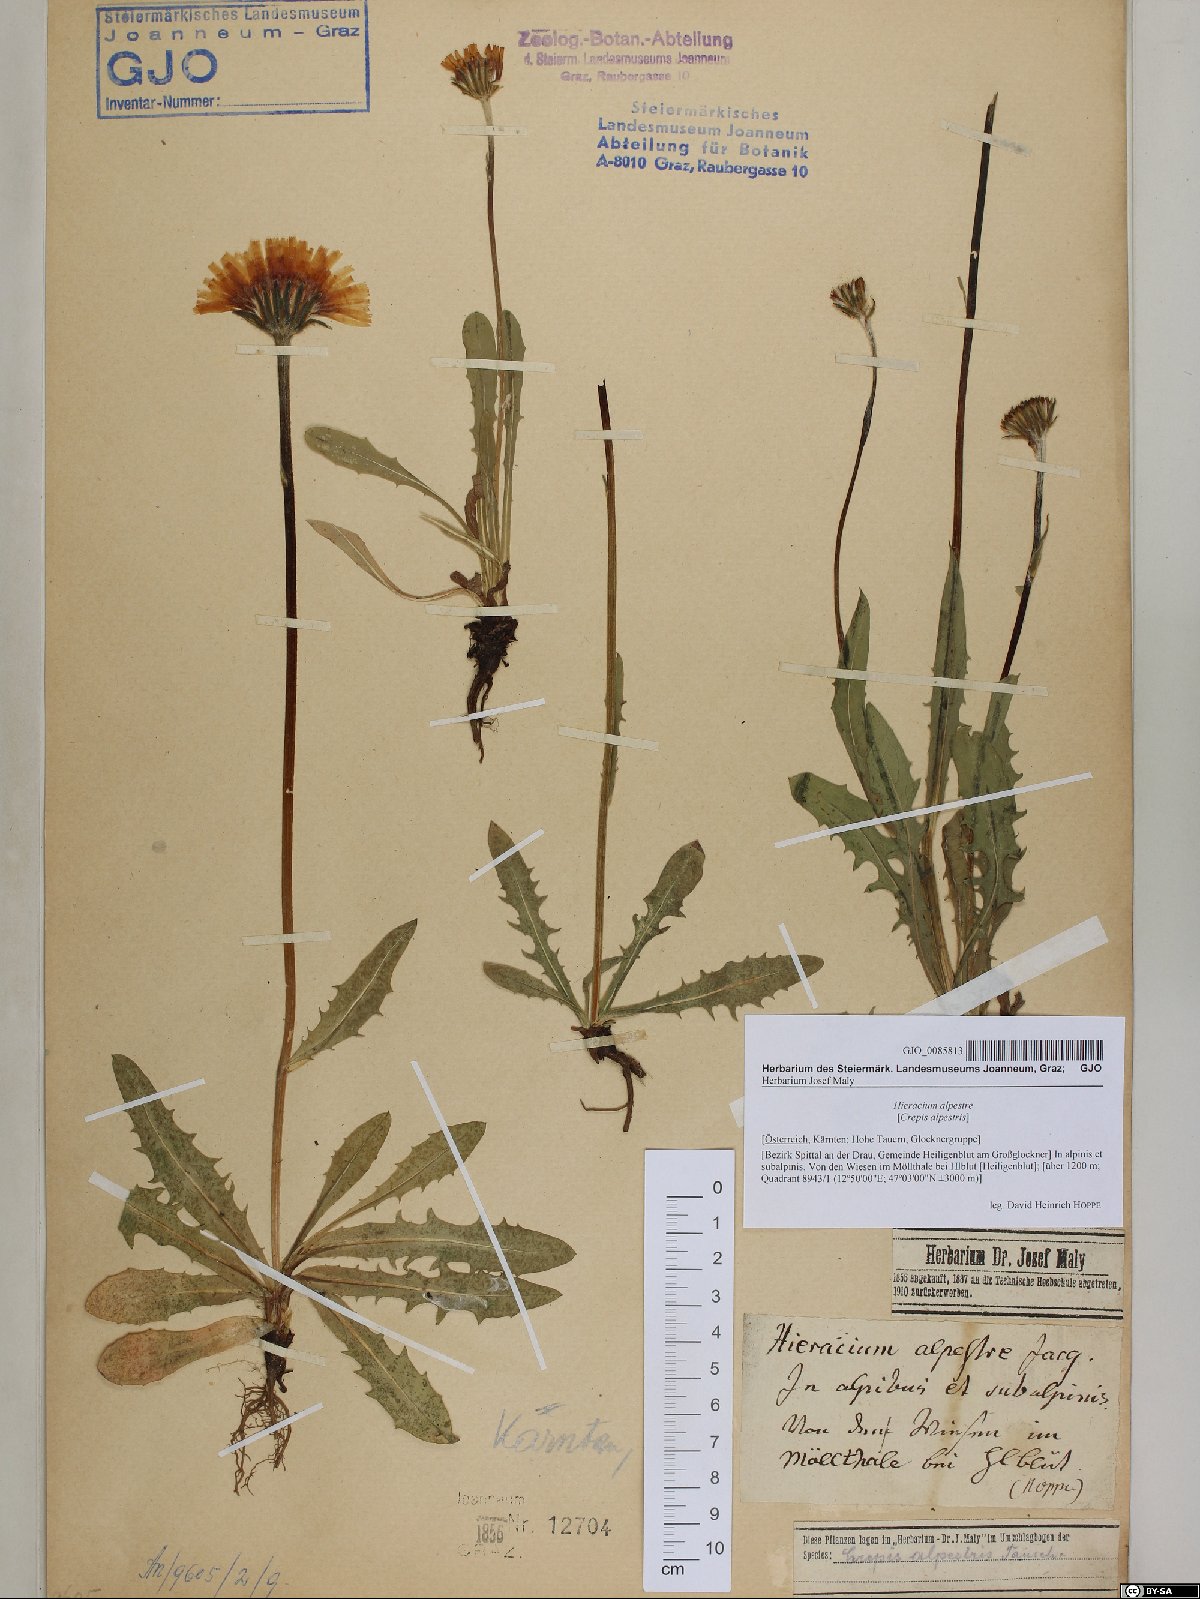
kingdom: Plantae
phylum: Tracheophyta
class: Magnoliopsida
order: Asterales
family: Asteraceae
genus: Crepis
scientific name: Crepis alpestris
